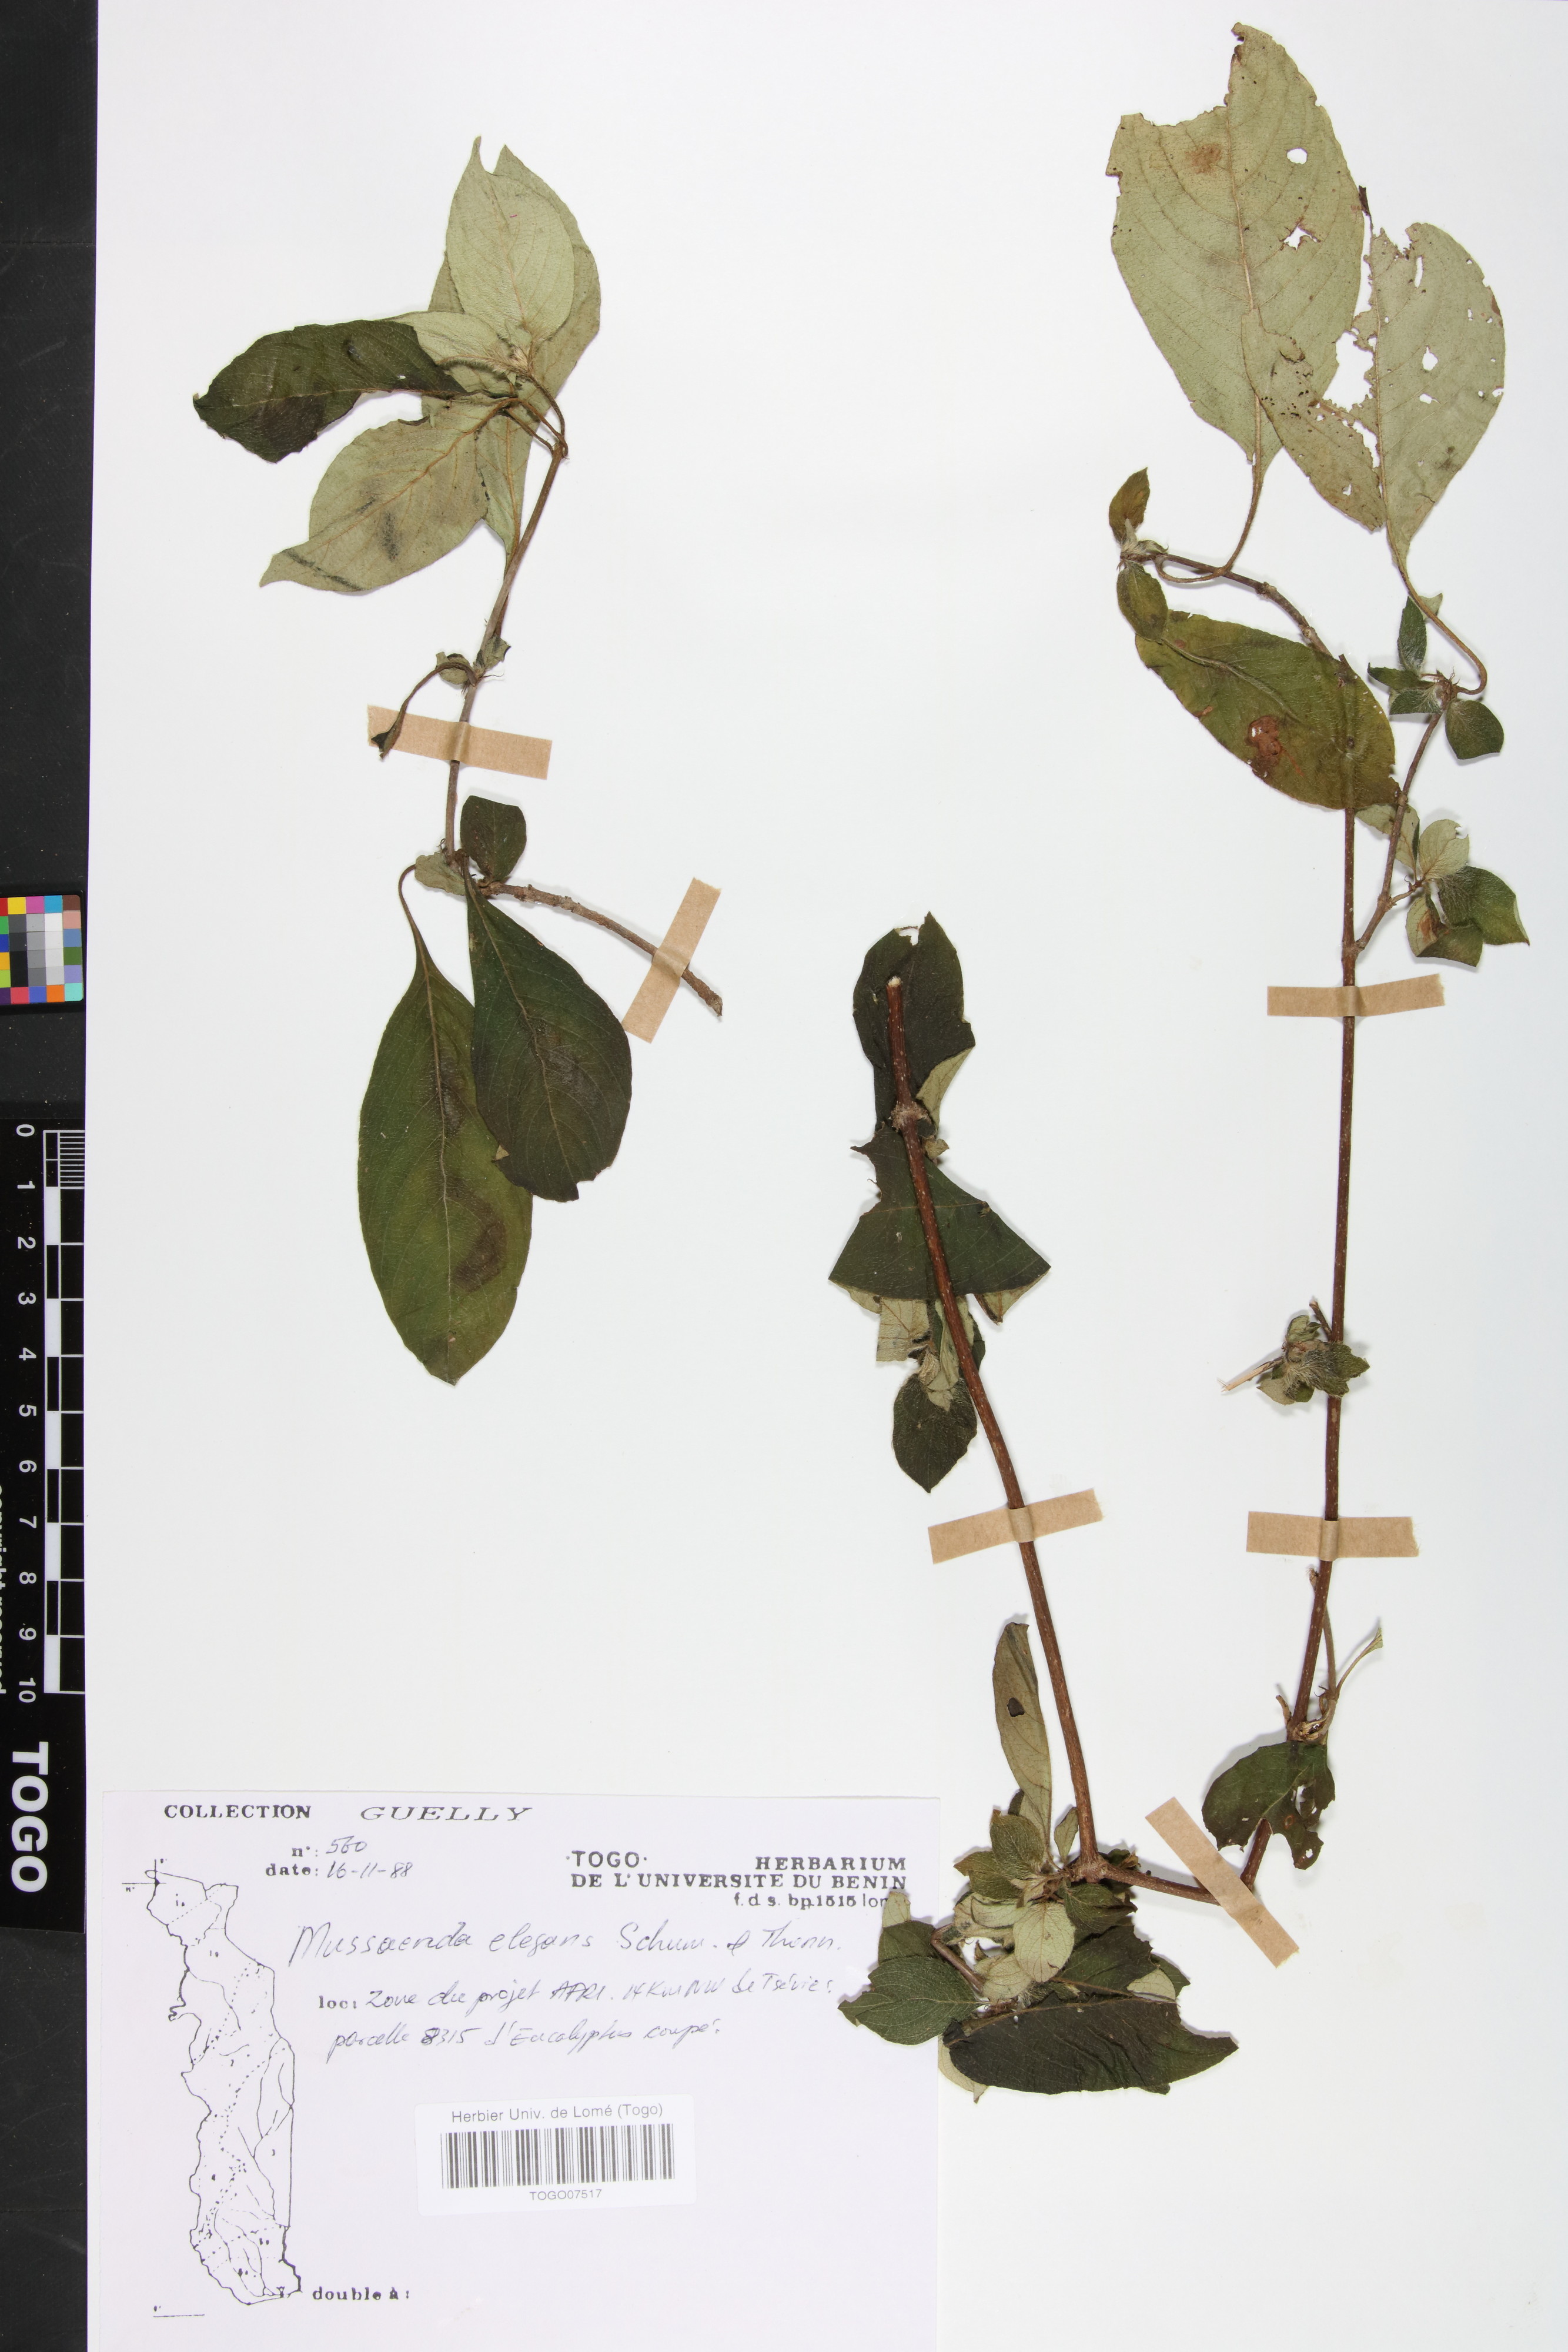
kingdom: Plantae
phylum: Tracheophyta
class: Magnoliopsida
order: Gentianales
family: Rubiaceae
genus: Mussaenda
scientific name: Mussaenda elegans
